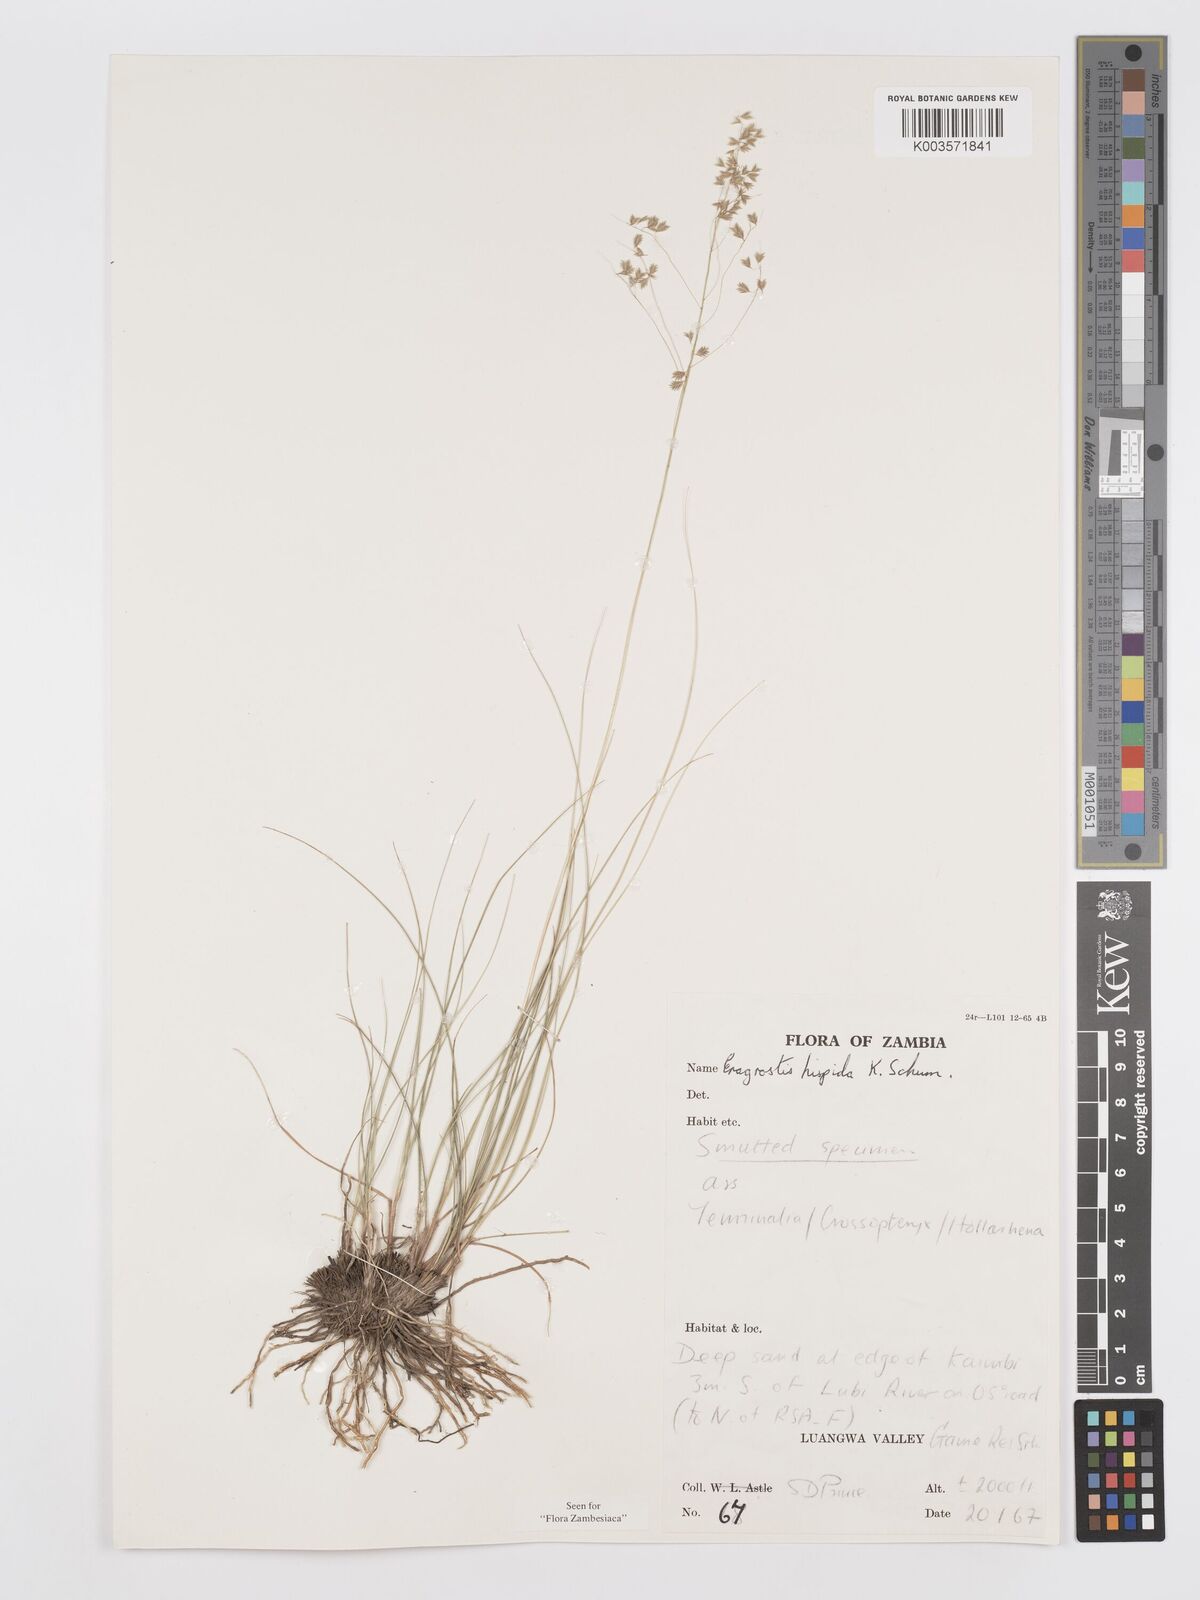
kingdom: Plantae
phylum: Tracheophyta
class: Liliopsida
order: Poales
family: Poaceae
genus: Eragrostis
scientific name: Eragrostis hispida
